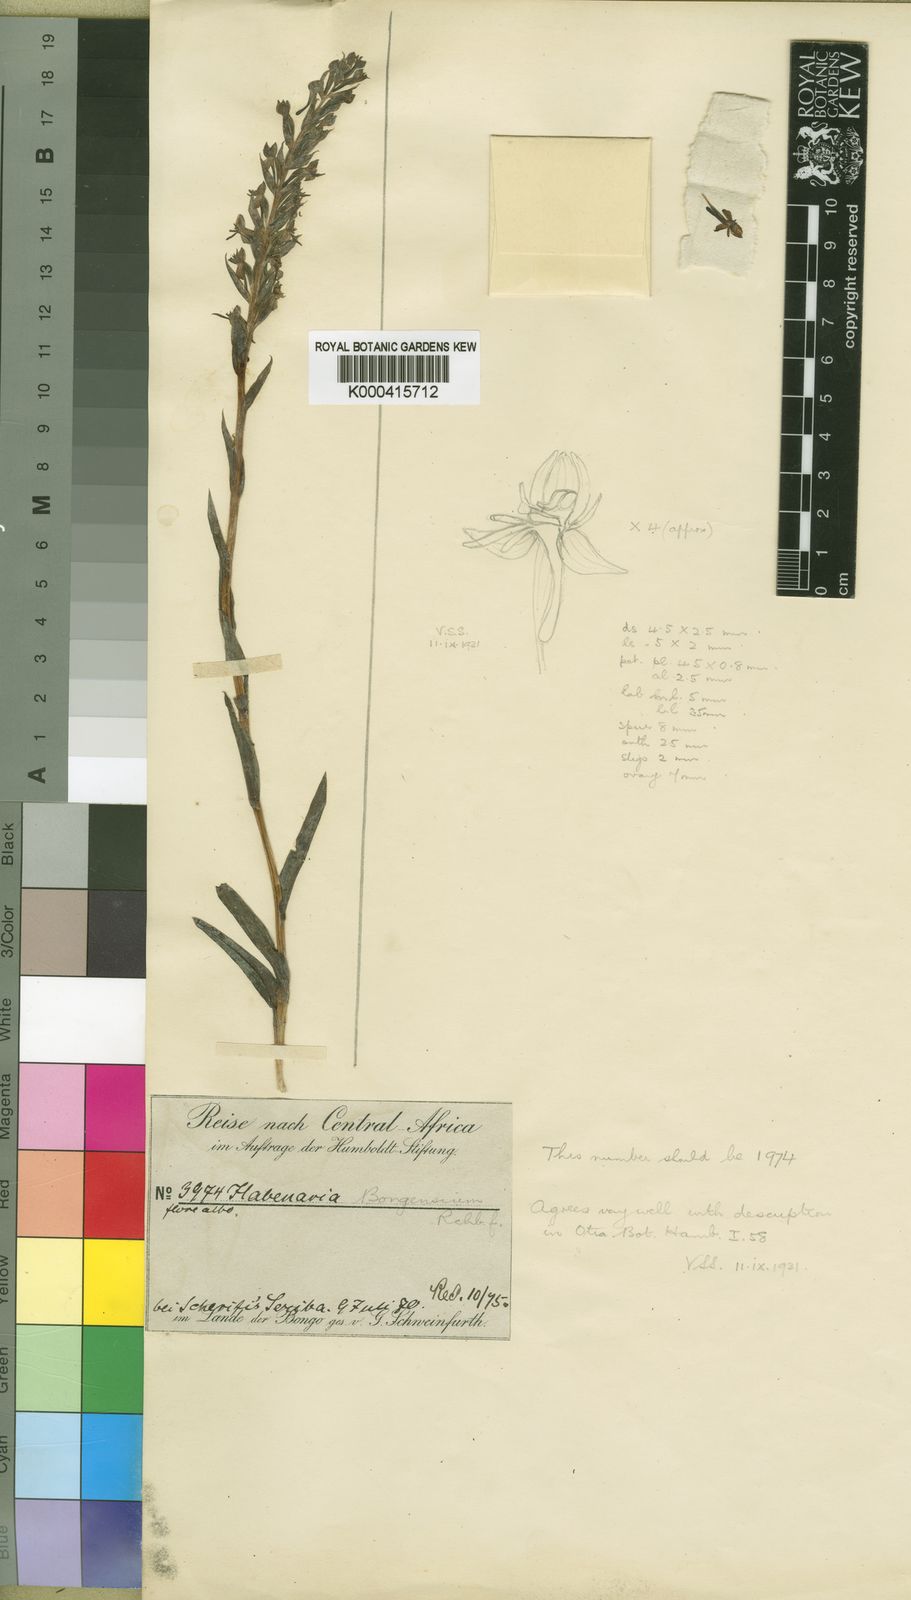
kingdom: Plantae
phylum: Tracheophyta
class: Liliopsida
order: Asparagales
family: Orchidaceae
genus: Habenaria
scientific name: Habenaria bongensium
